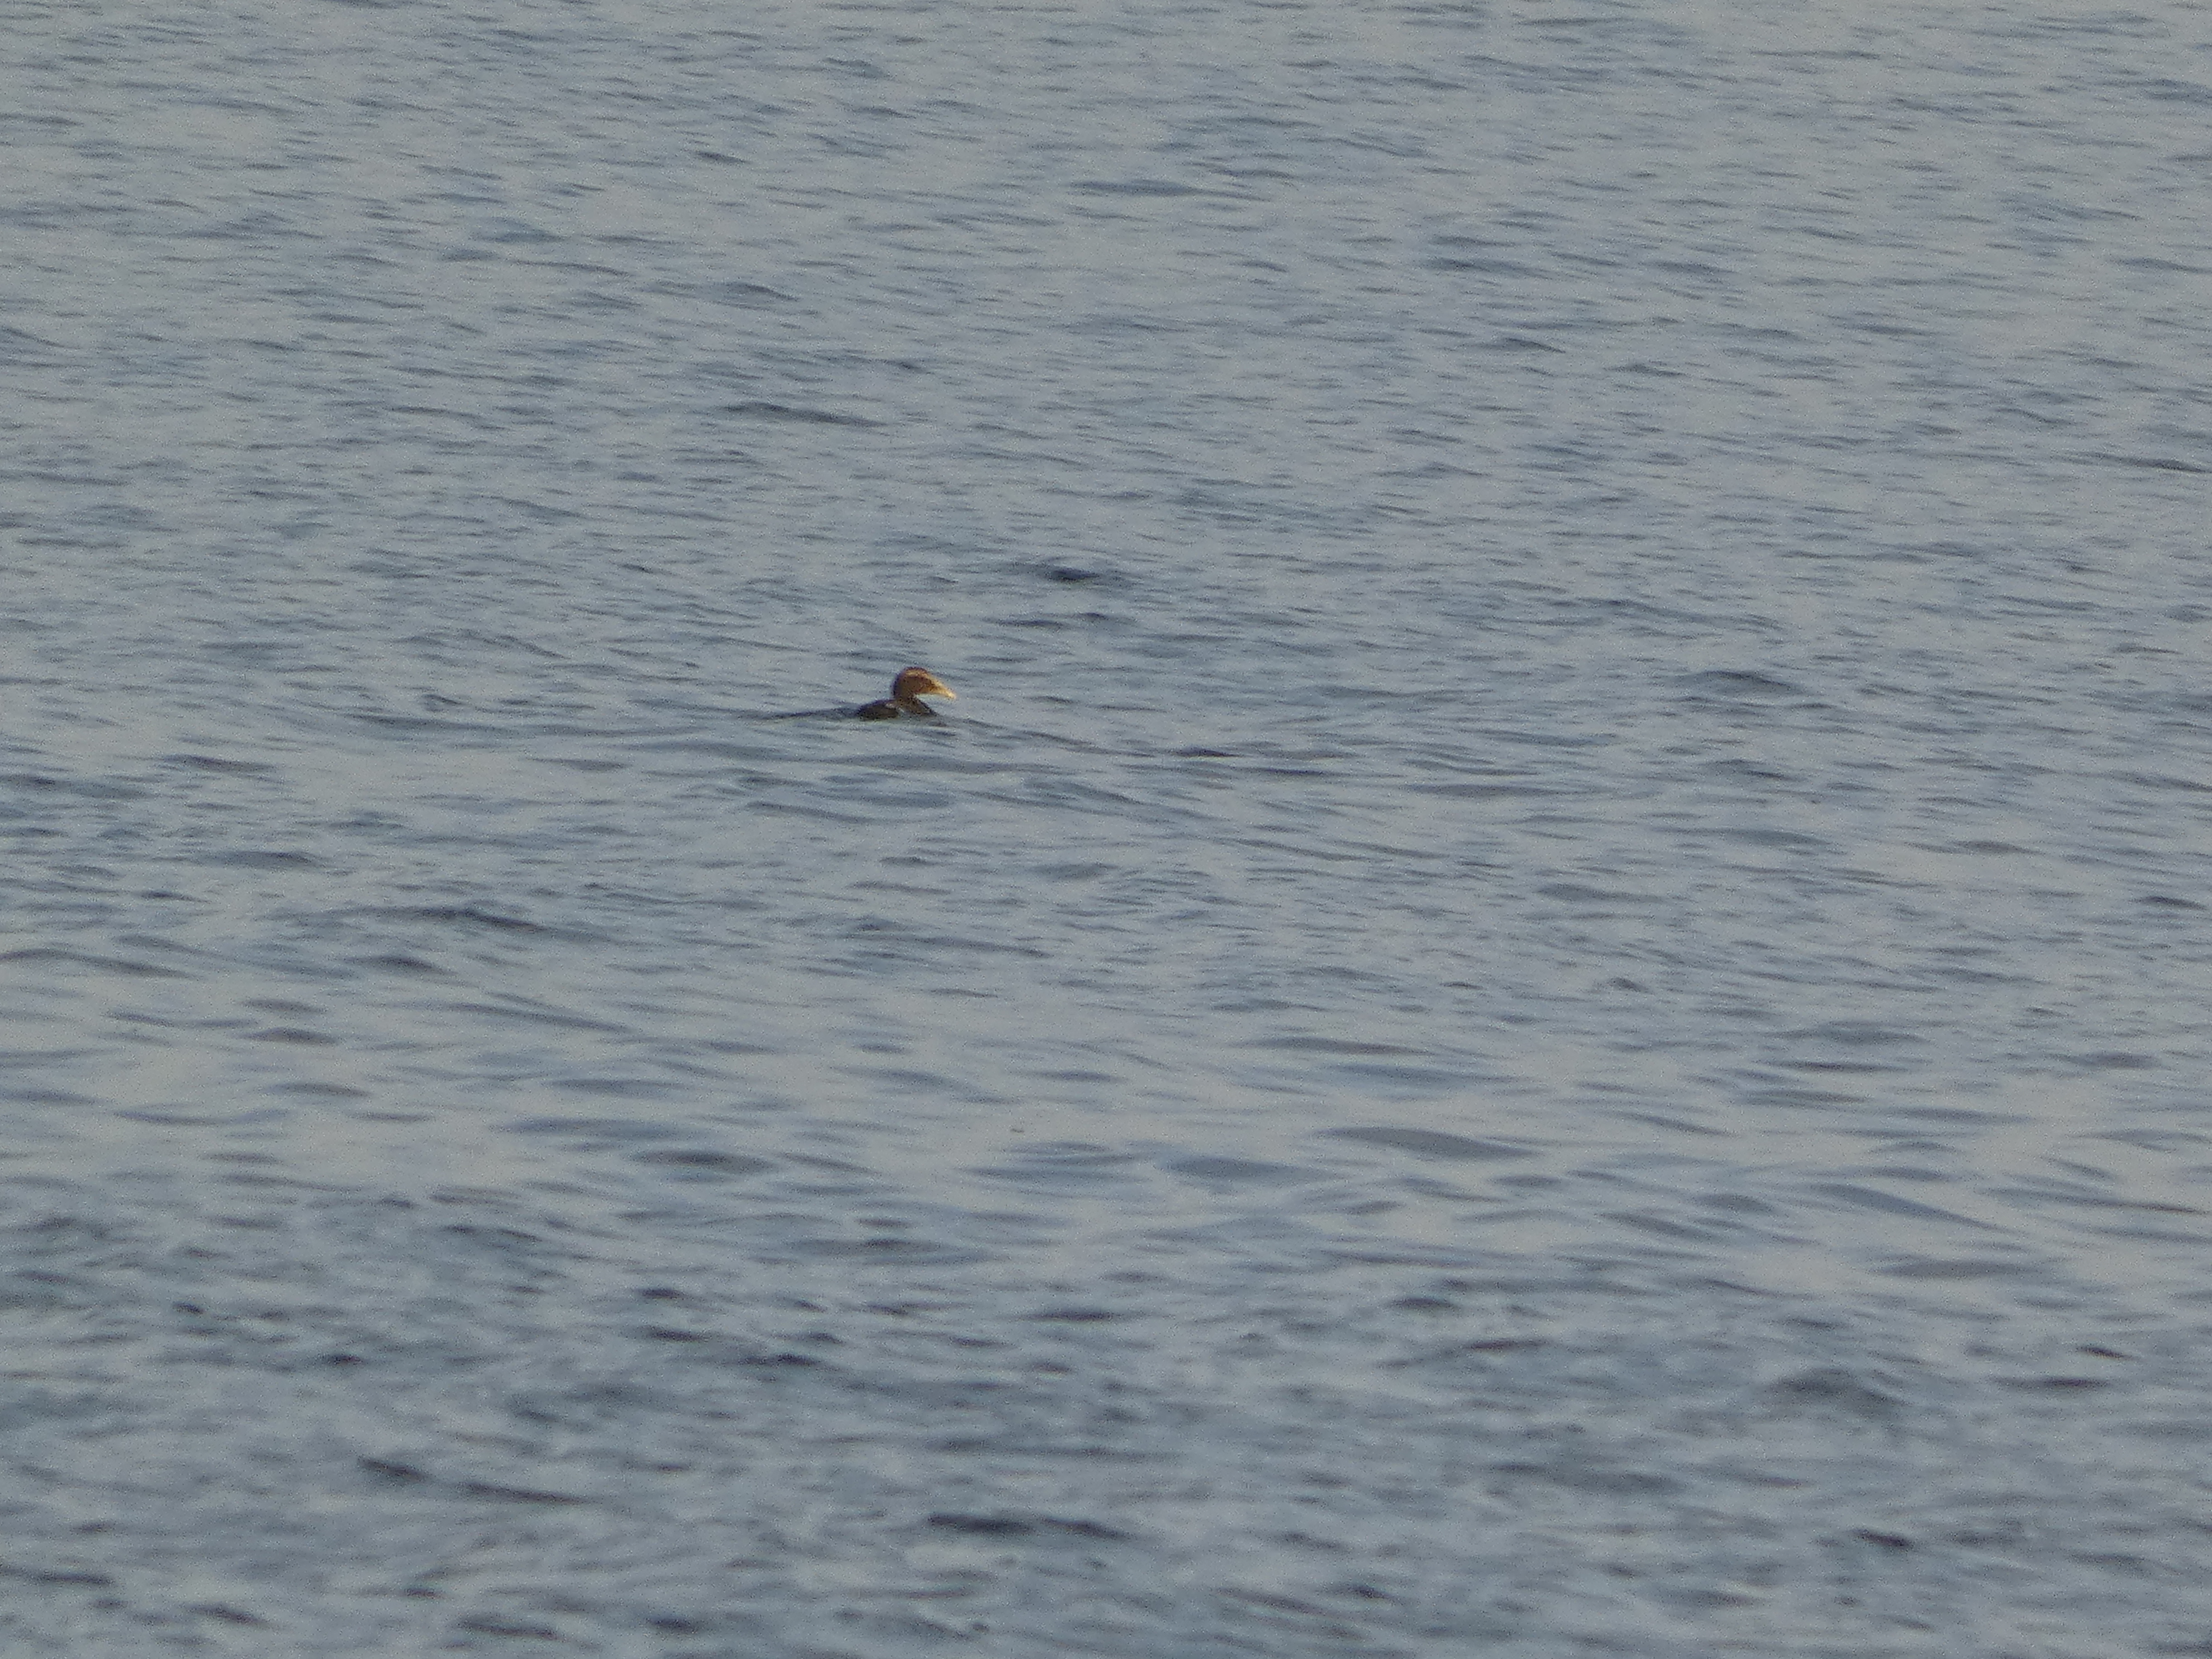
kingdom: Animalia
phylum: Chordata
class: Aves
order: Anseriformes
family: Anatidae
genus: Somateria
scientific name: Somateria mollissima
